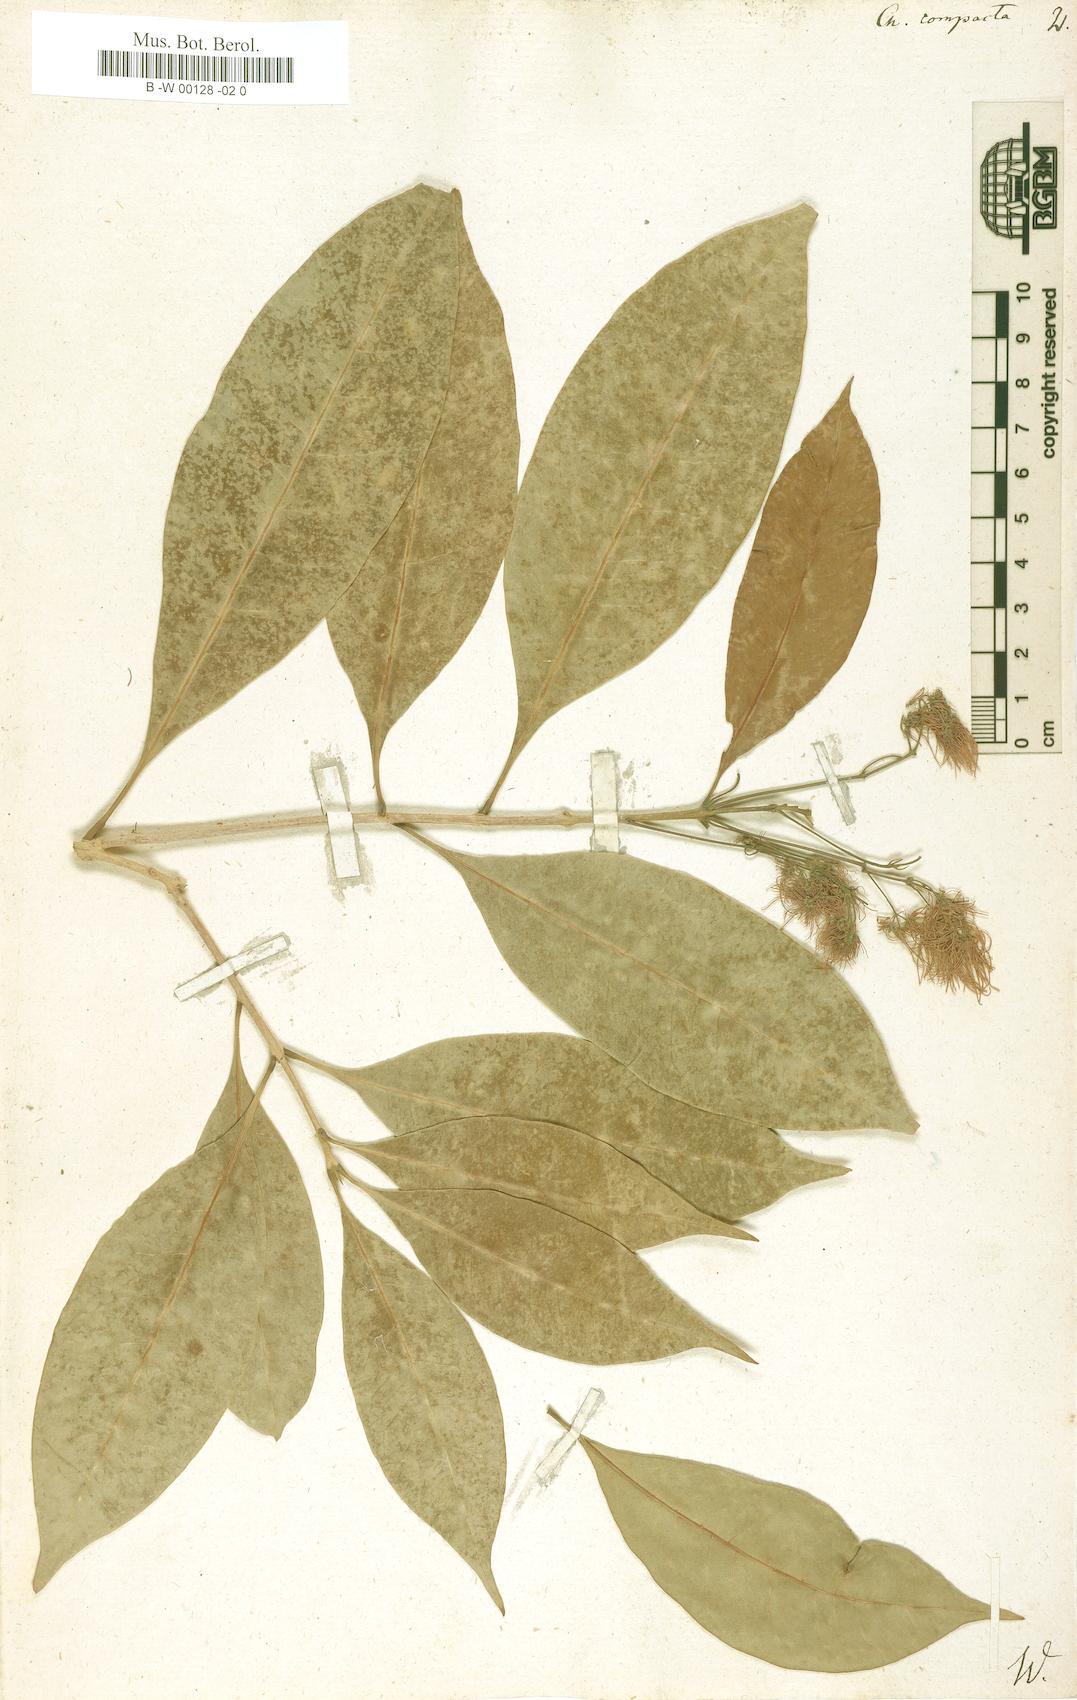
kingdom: Plantae
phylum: Tracheophyta
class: Magnoliopsida
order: Lamiales
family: Oleaceae
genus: Chionanthus
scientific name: Chionanthus compactus
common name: Bridgo tree
